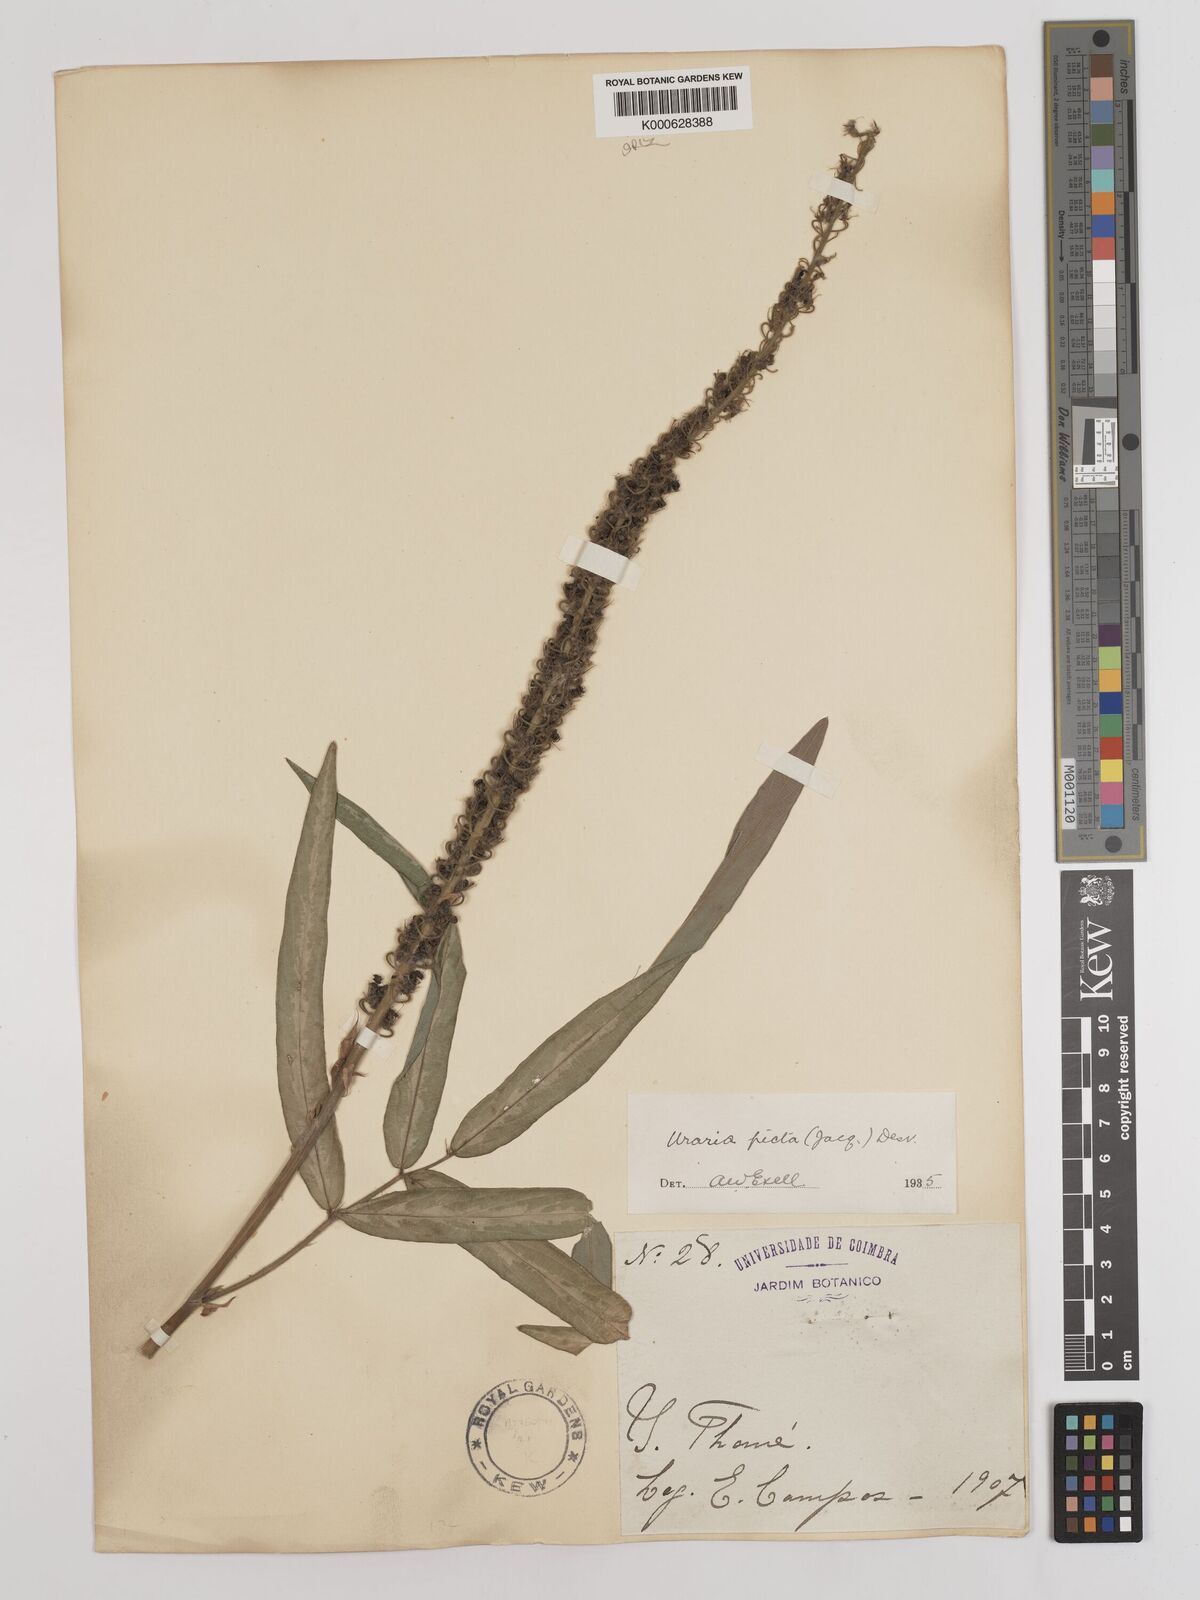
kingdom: Plantae
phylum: Tracheophyta
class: Magnoliopsida
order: Fabales
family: Fabaceae
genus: Uraria
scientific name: Uraria picta
